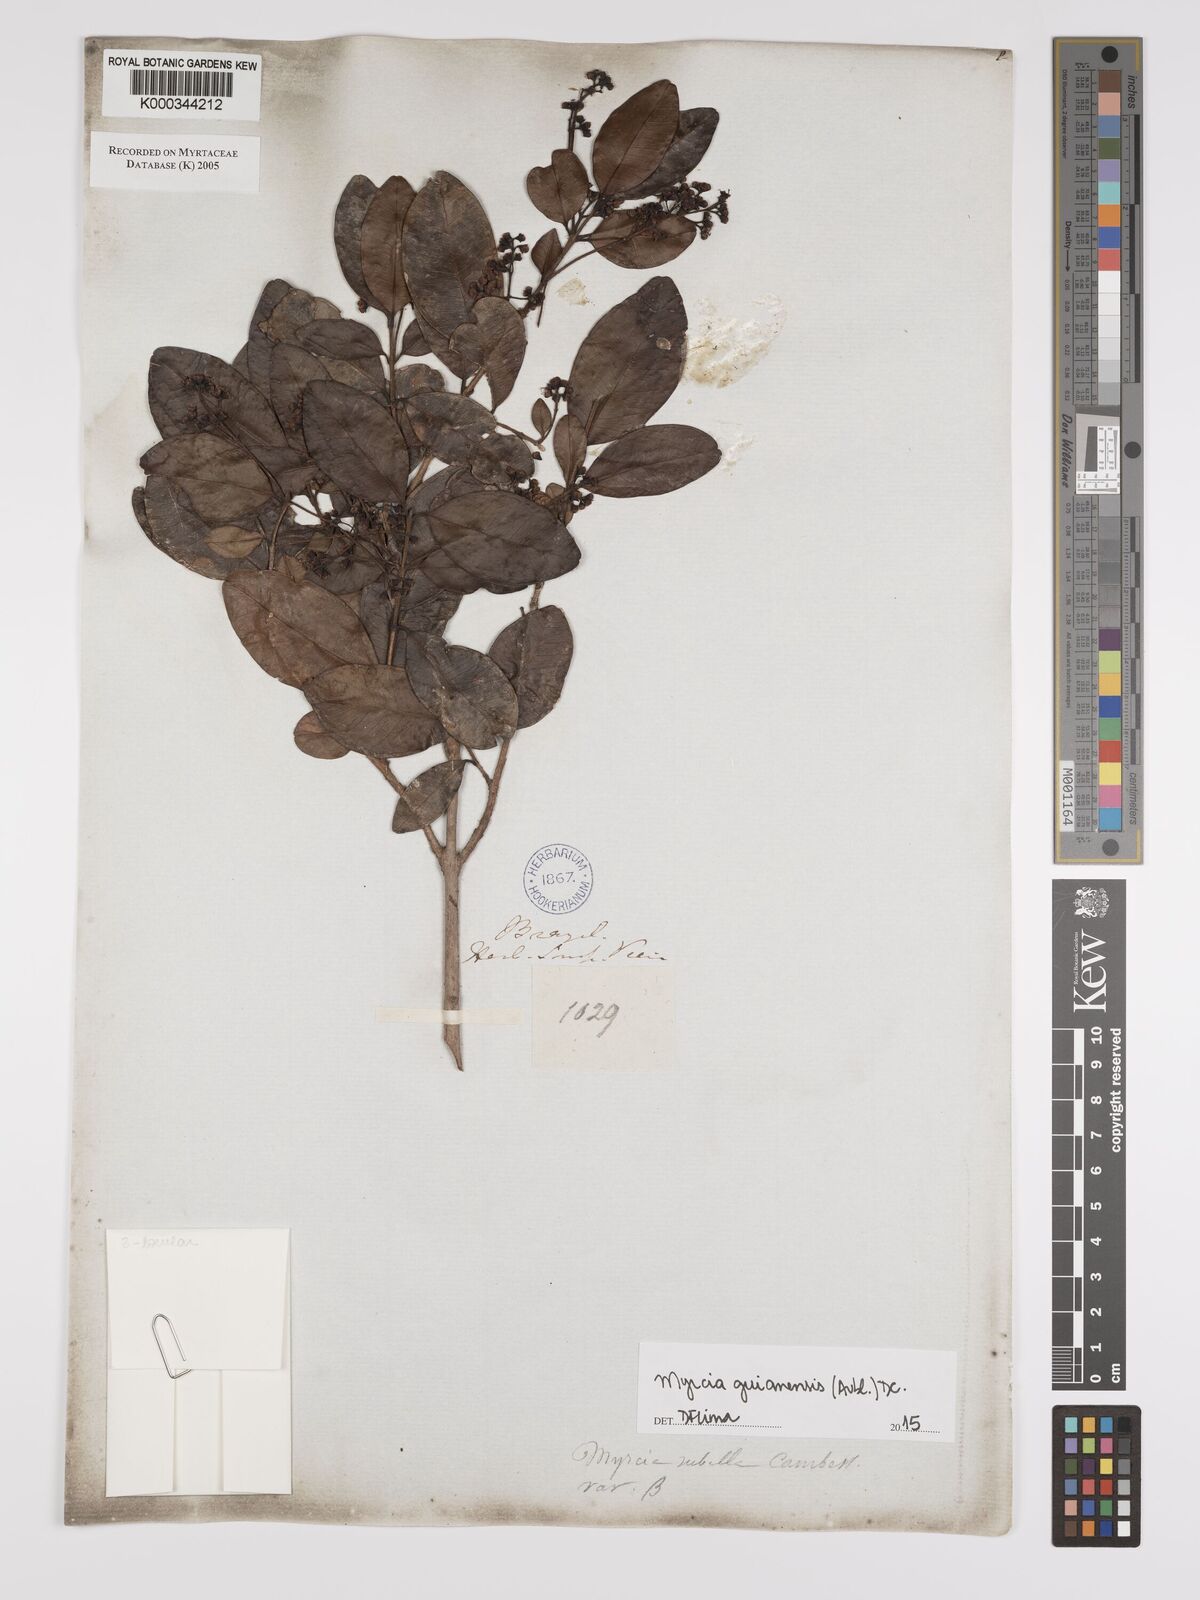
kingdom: Plantae
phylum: Tracheophyta
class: Magnoliopsida
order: Myrtales
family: Myrtaceae
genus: Myrcia
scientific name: Myrcia nigropunctata
